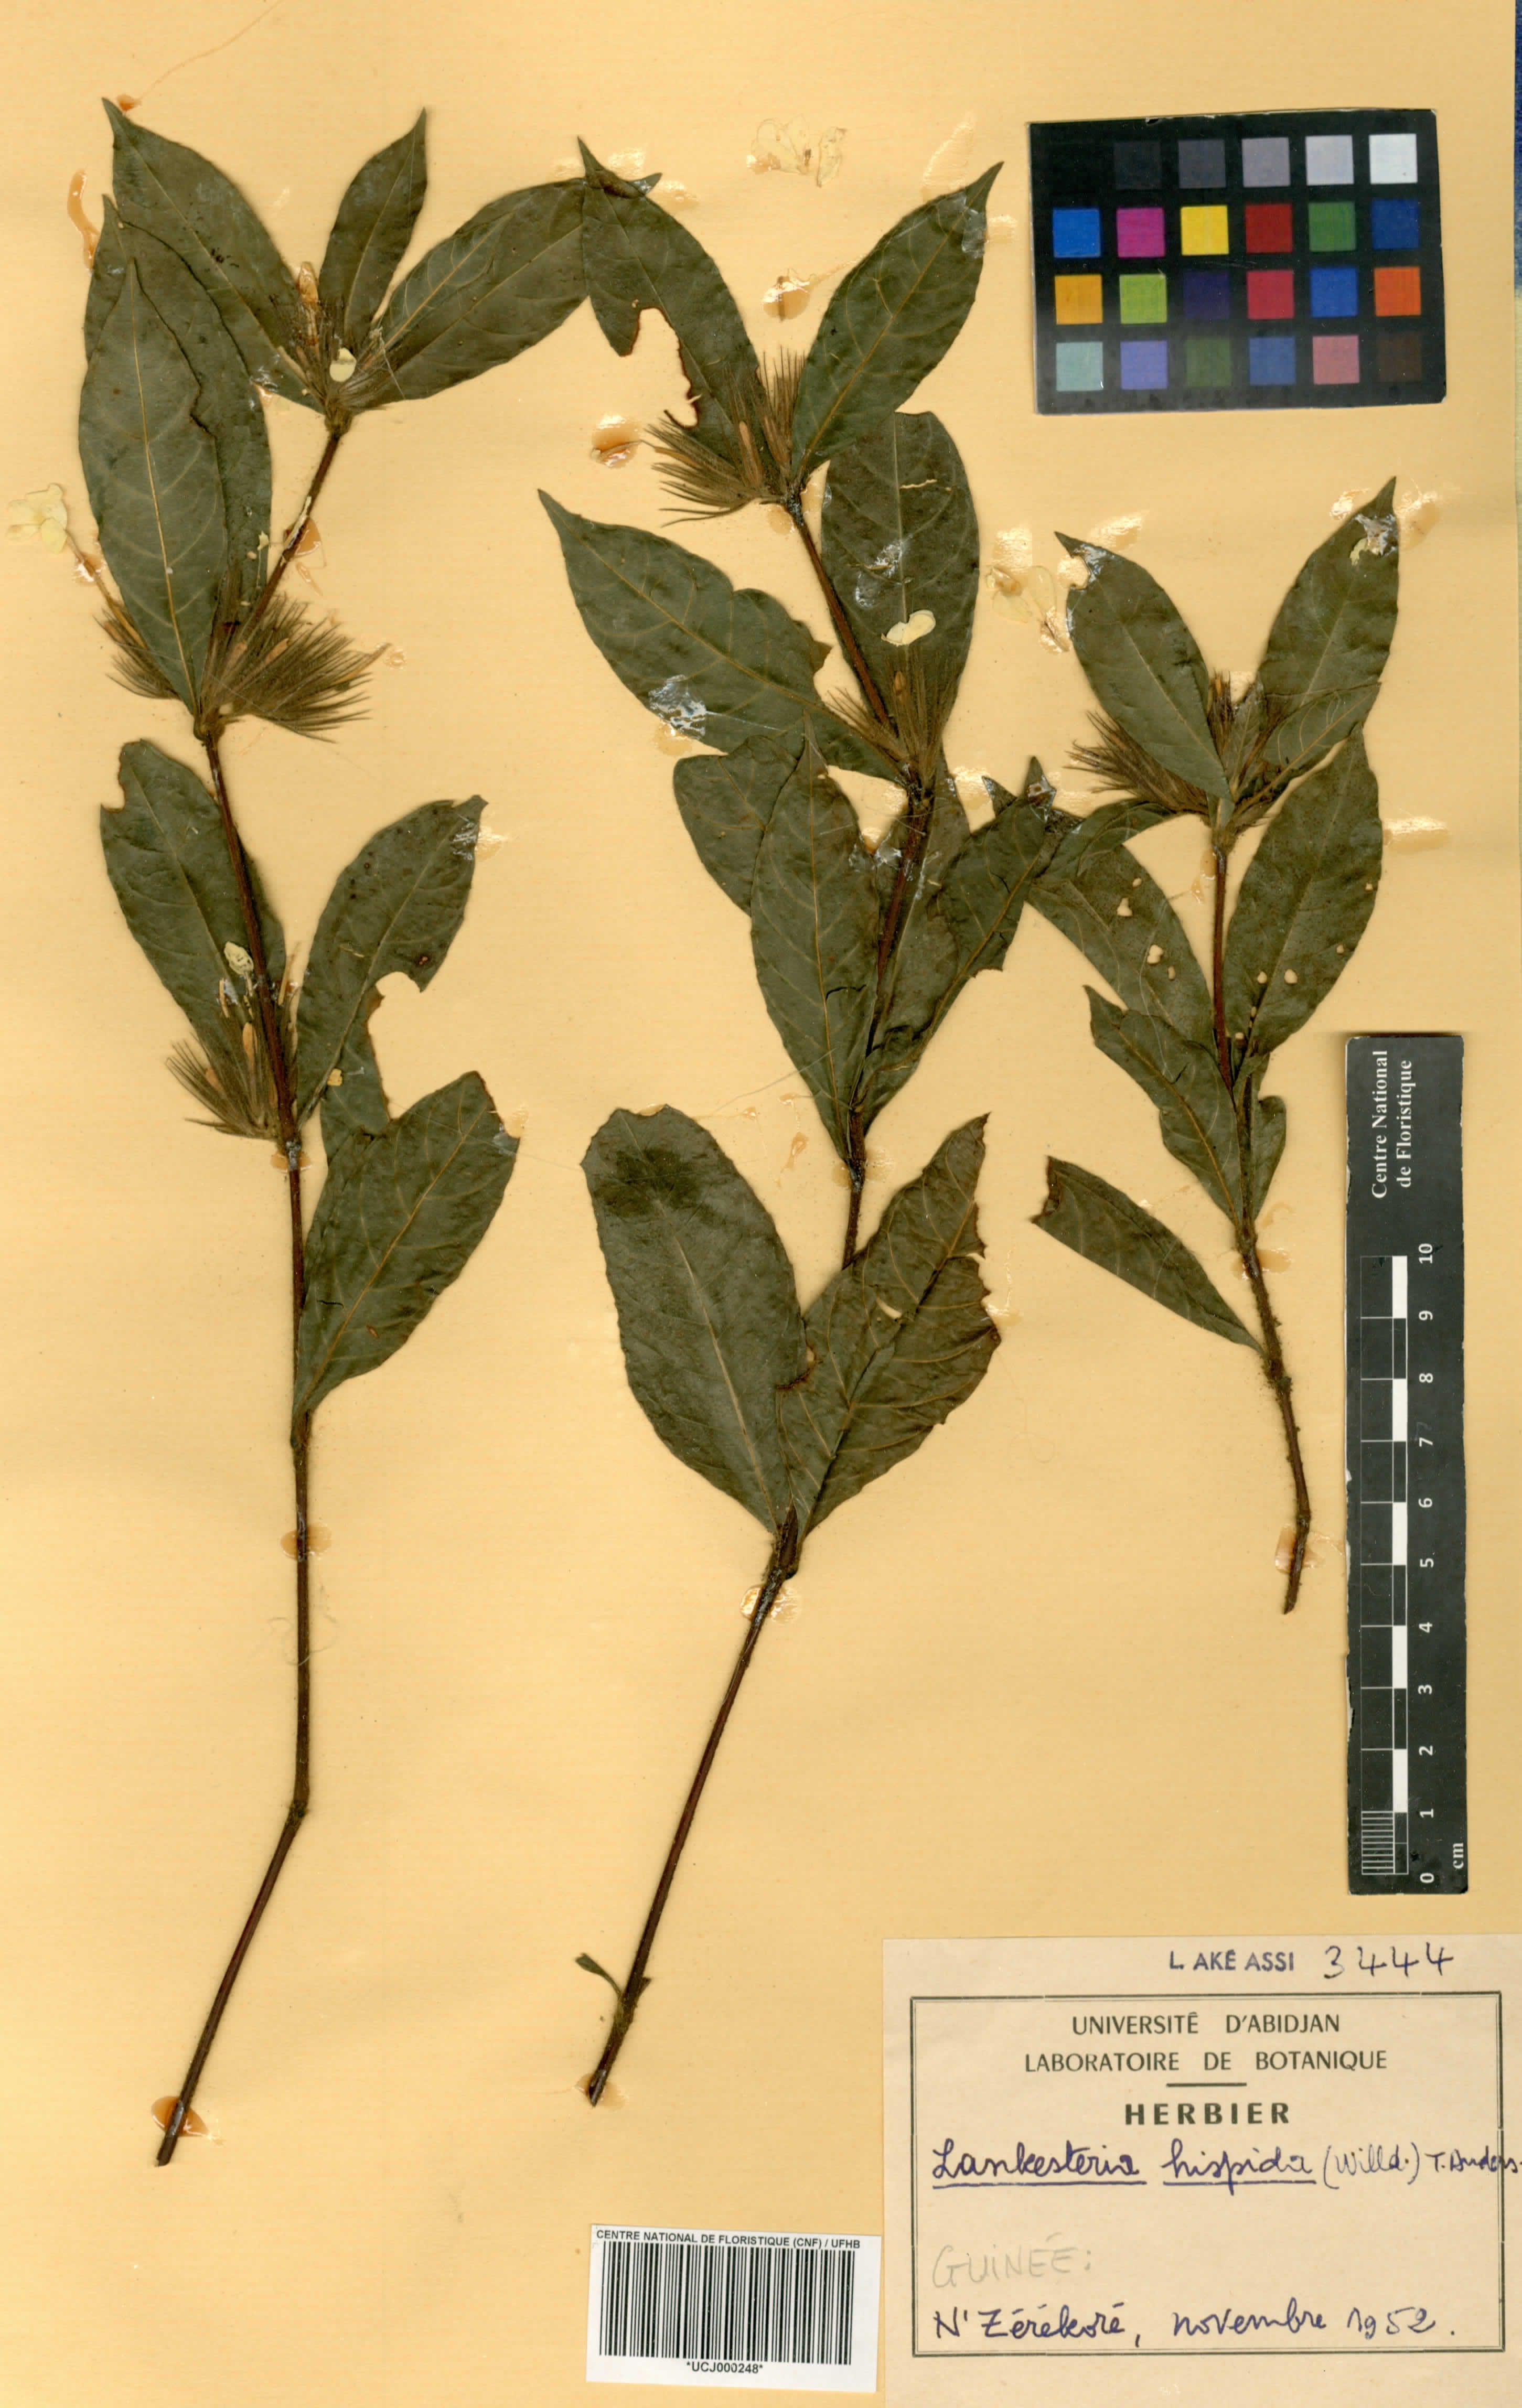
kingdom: Plantae
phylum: Tracheophyta
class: Magnoliopsida
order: Lamiales
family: Acanthaceae
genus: Lankesteria
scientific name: Lankesteria hispida
